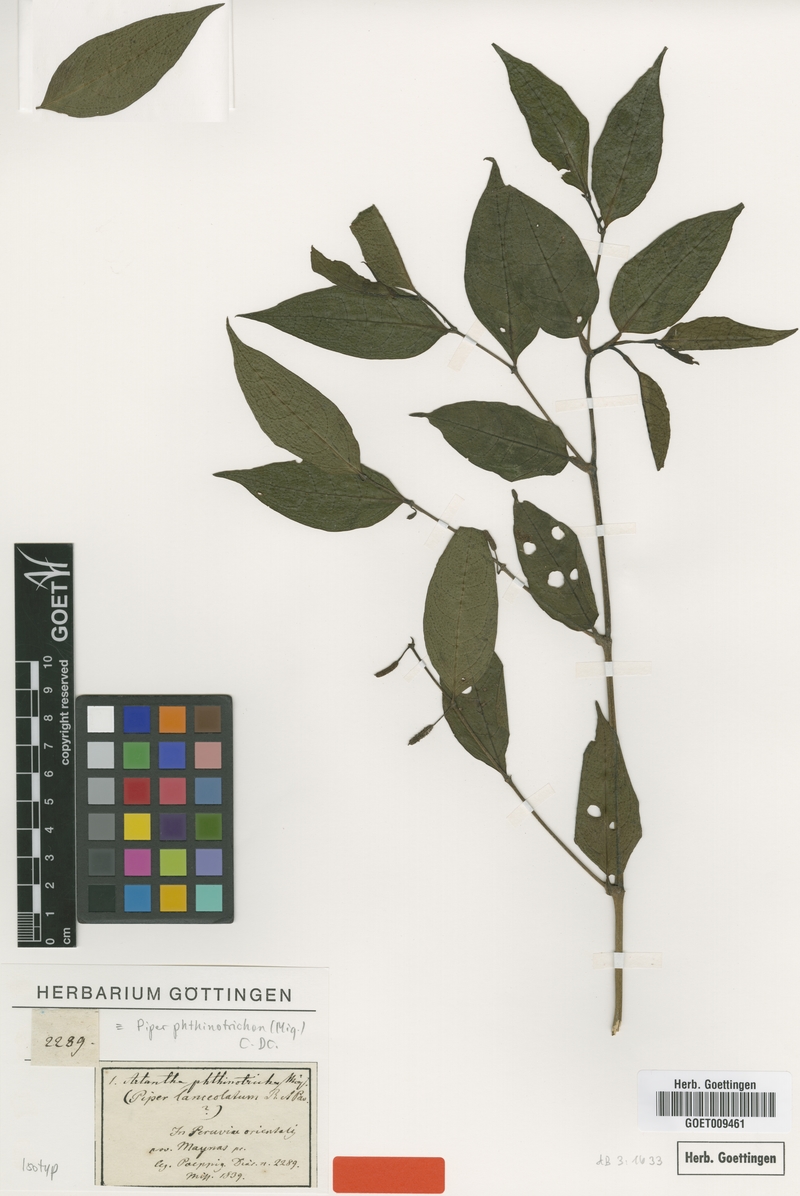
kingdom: Plantae
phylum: Tracheophyta
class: Magnoliopsida
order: Piperales
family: Piperaceae
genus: Piper
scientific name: Piper phytolaccifolium
